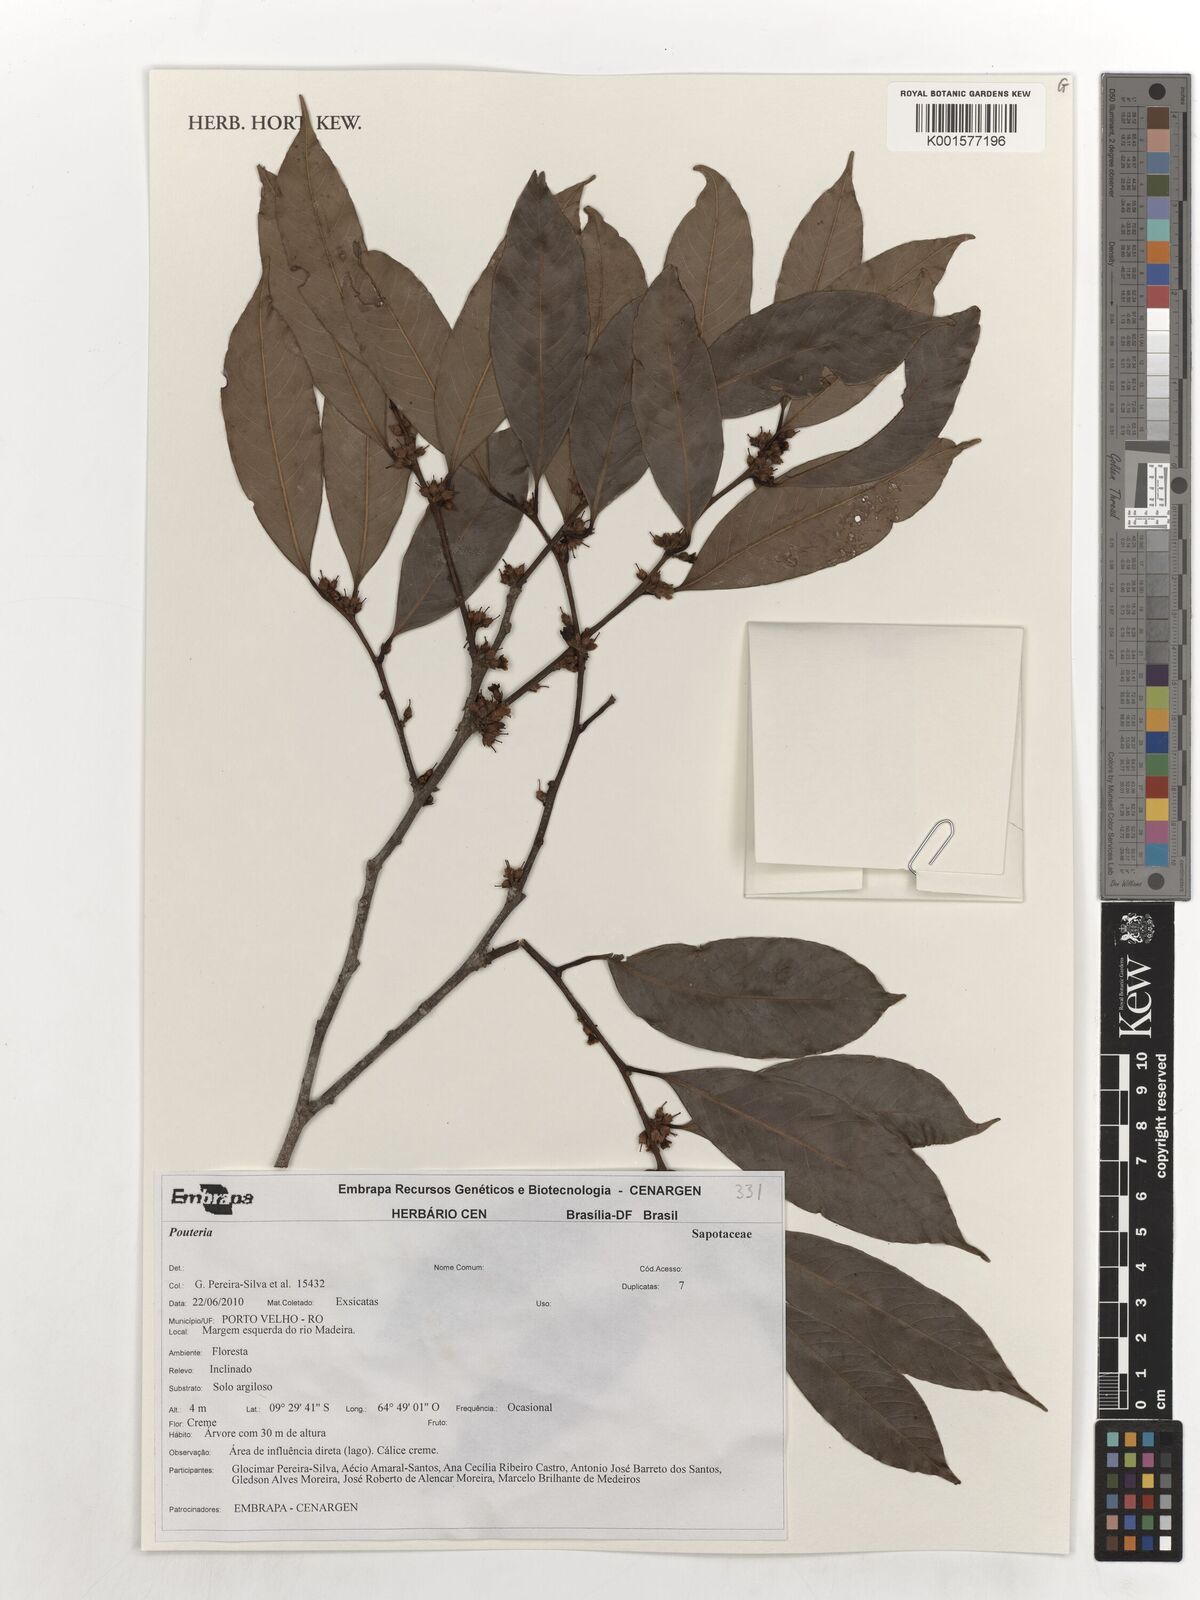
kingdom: Plantae
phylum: Tracheophyta
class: Magnoliopsida
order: Ericales
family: Sapotaceae
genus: Pouteria
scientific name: Pouteria
